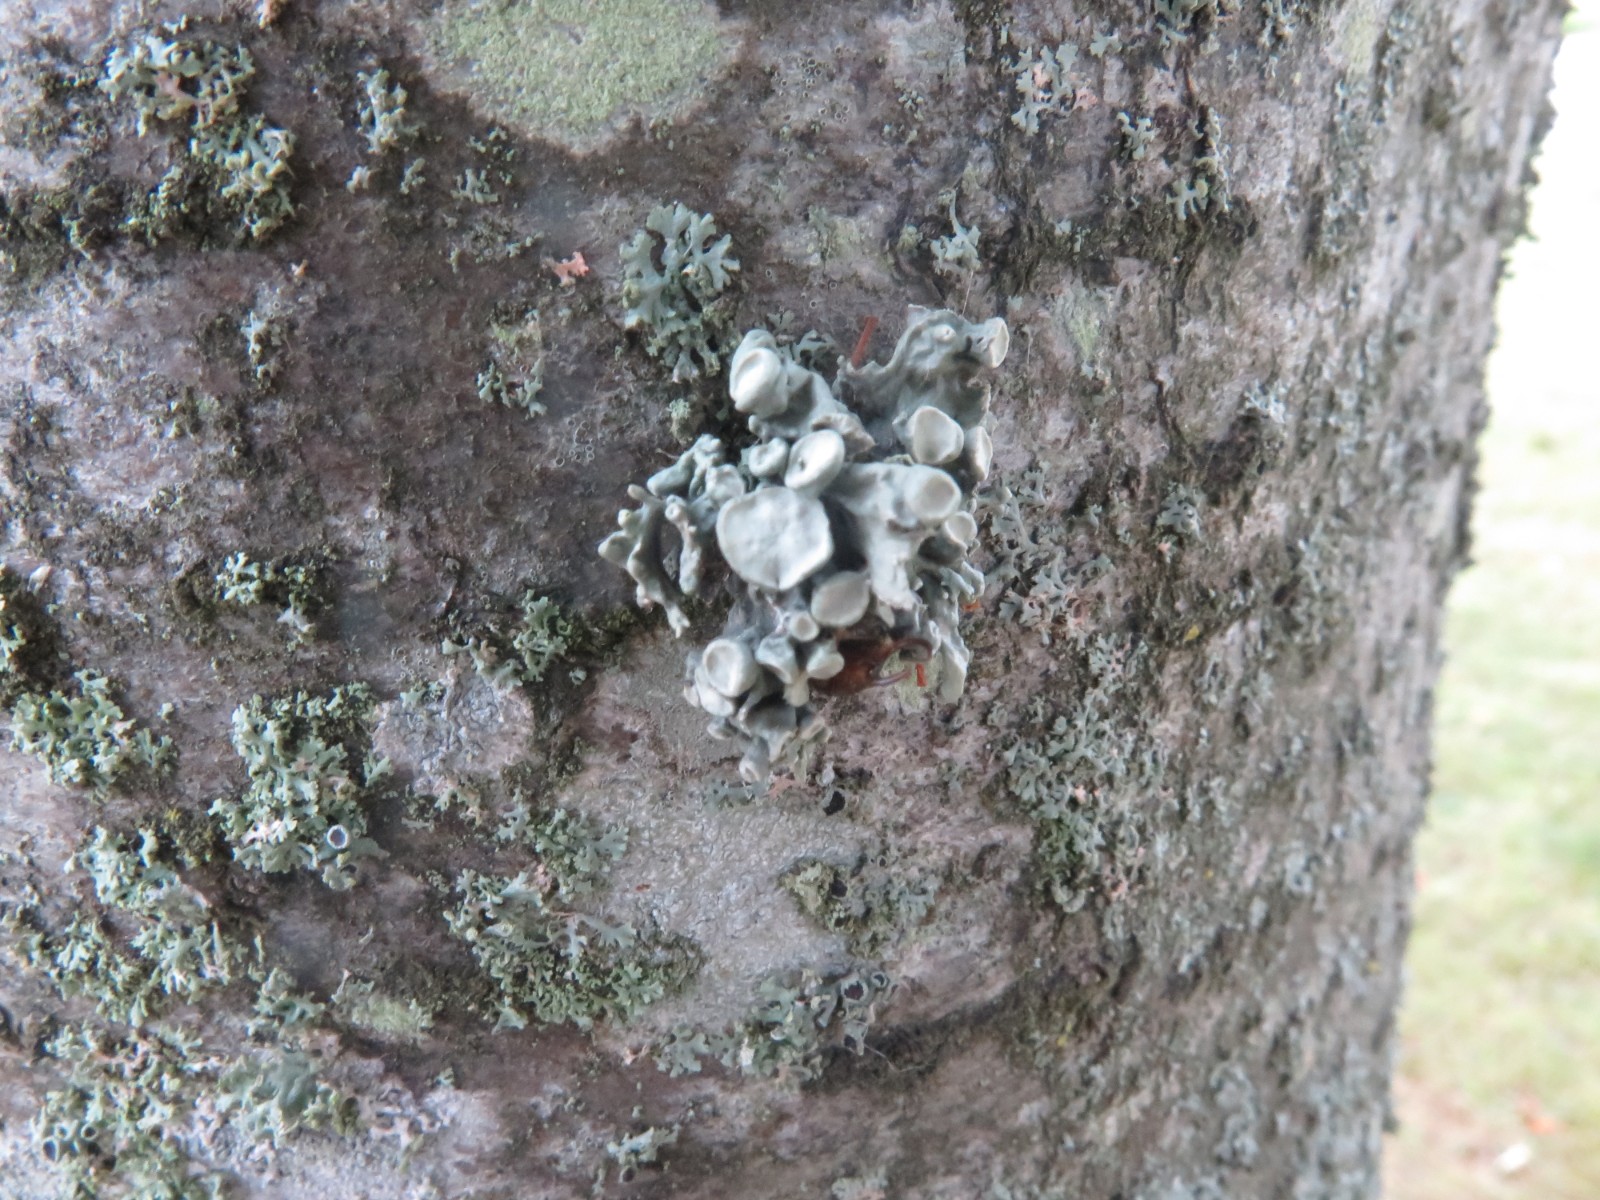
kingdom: Fungi
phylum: Ascomycota
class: Lecanoromycetes
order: Lecanorales
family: Ramalinaceae
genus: Ramalina
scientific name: Ramalina fastigiata
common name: tue-grenlav
